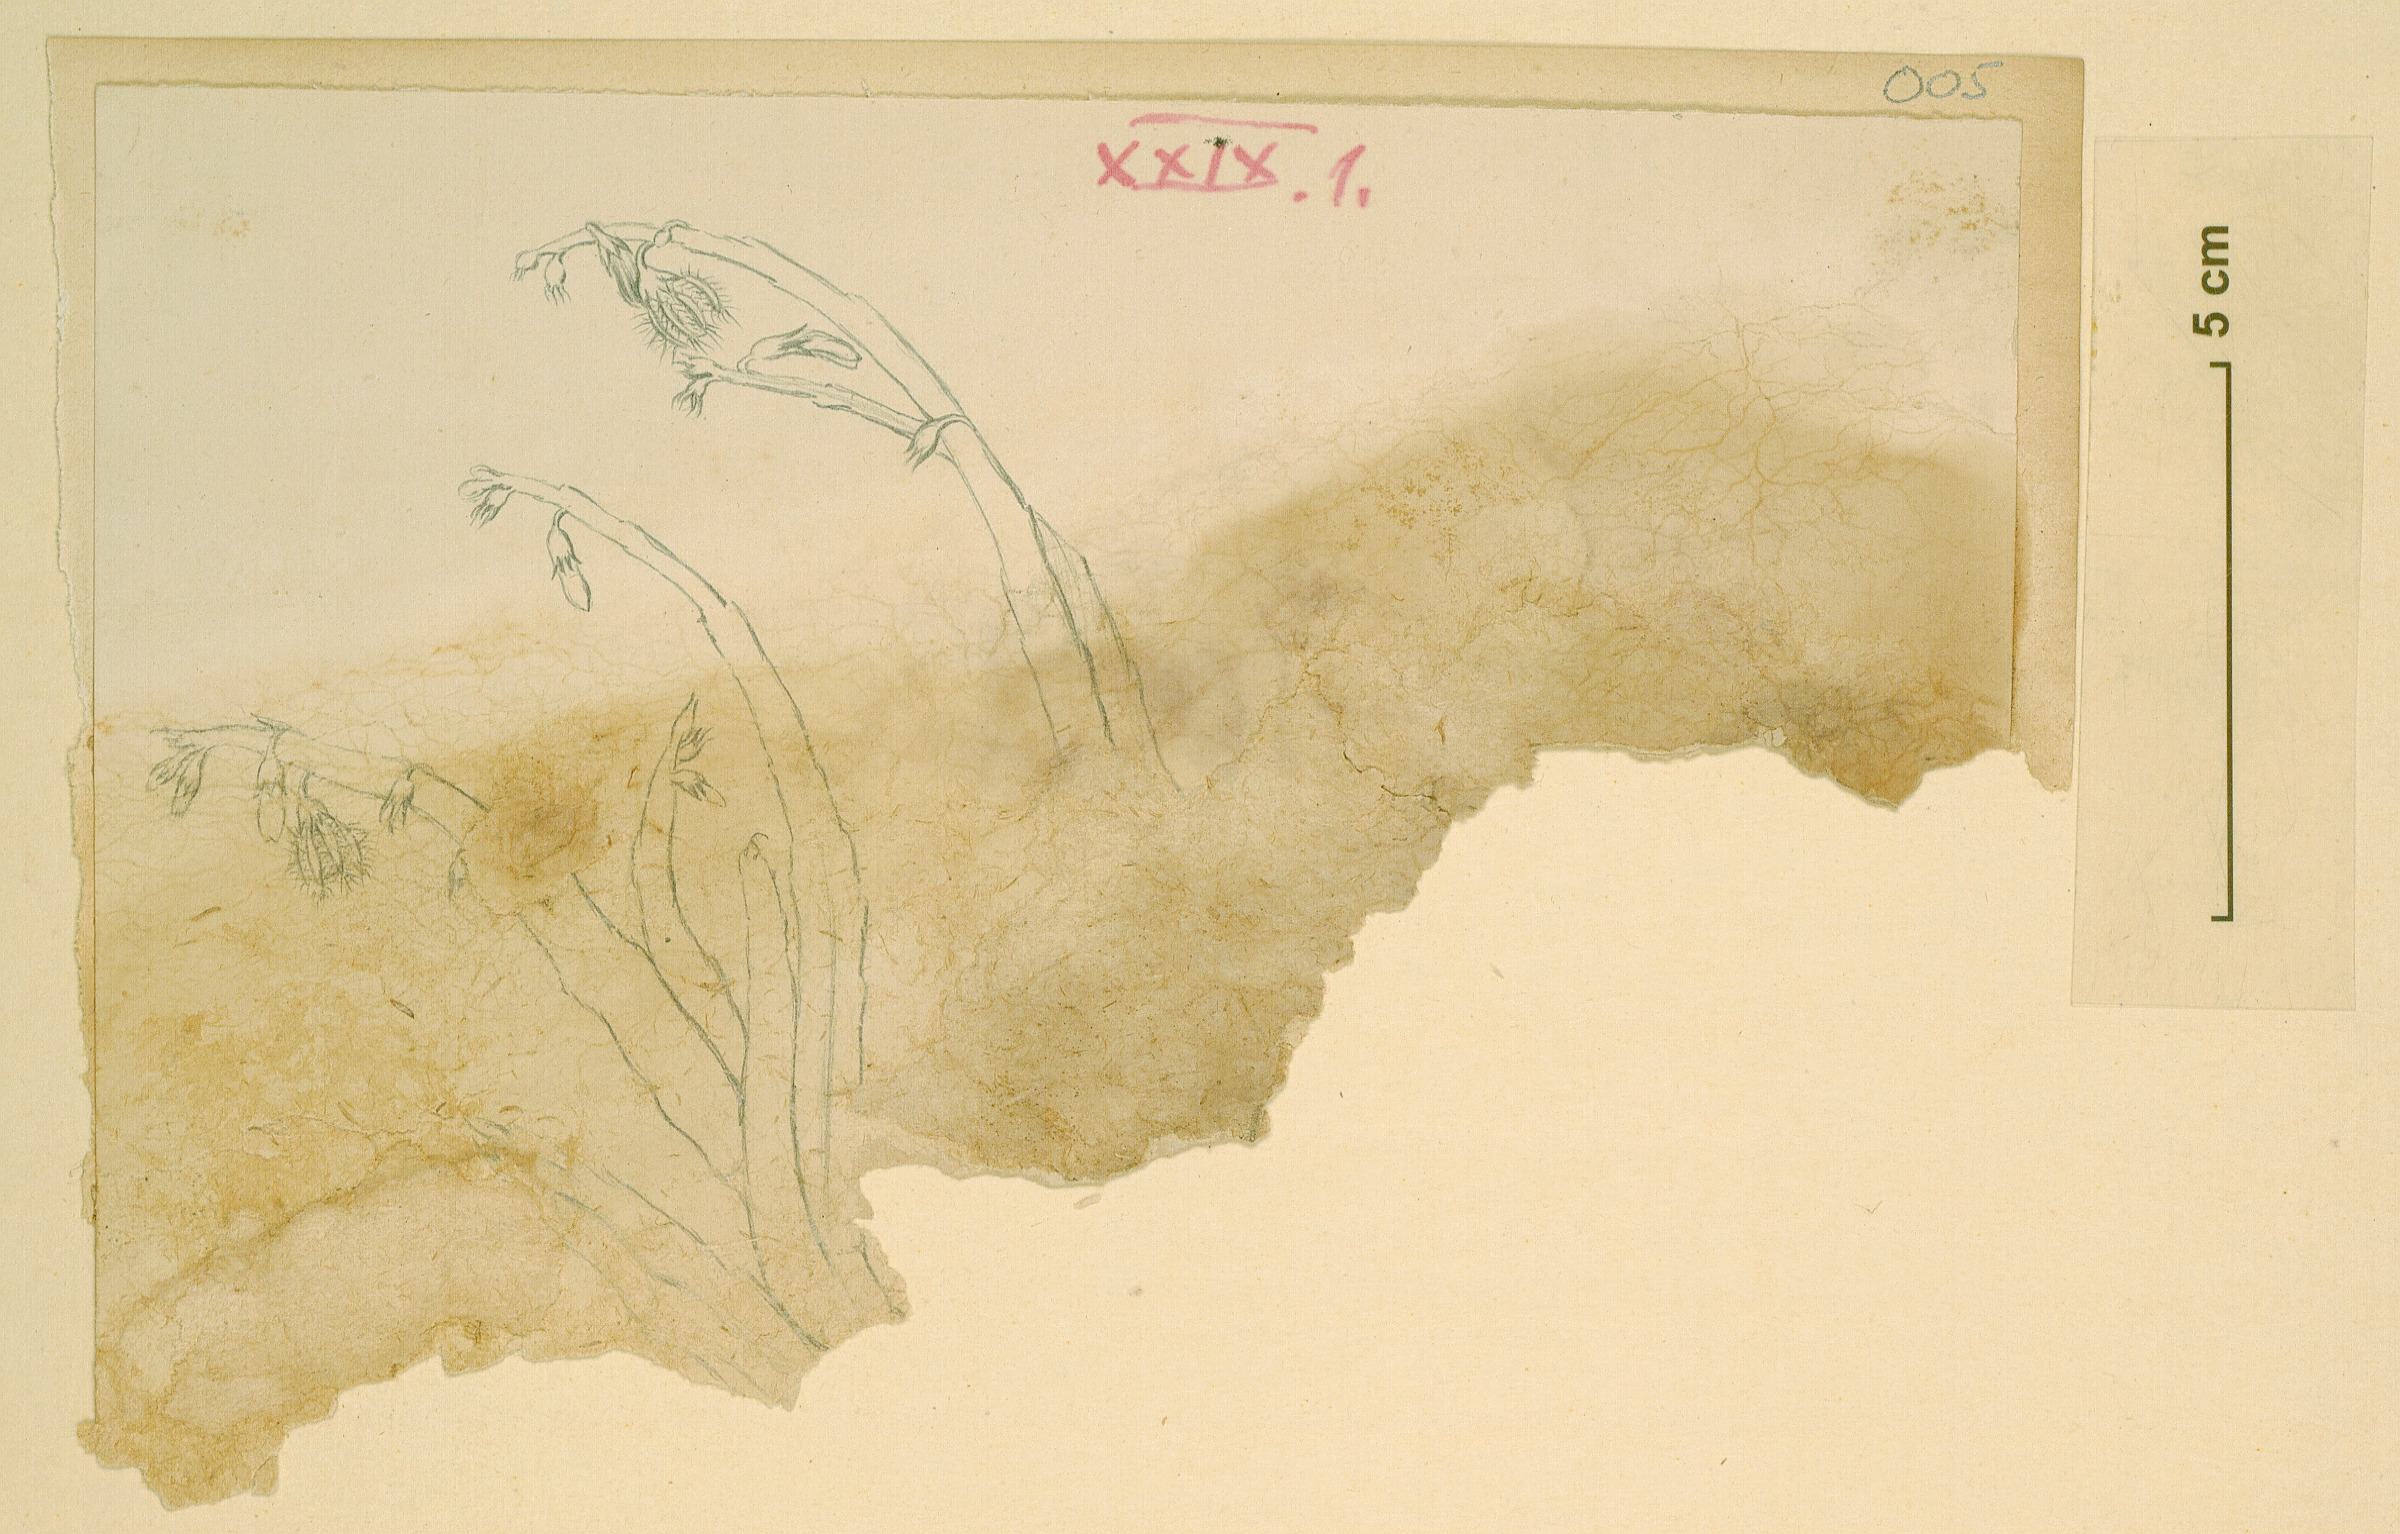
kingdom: Plantae
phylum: Tracheophyta
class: Magnoliopsida
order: Gentianales
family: Apocynaceae
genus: Ceropegia
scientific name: Ceropegia adscendens
